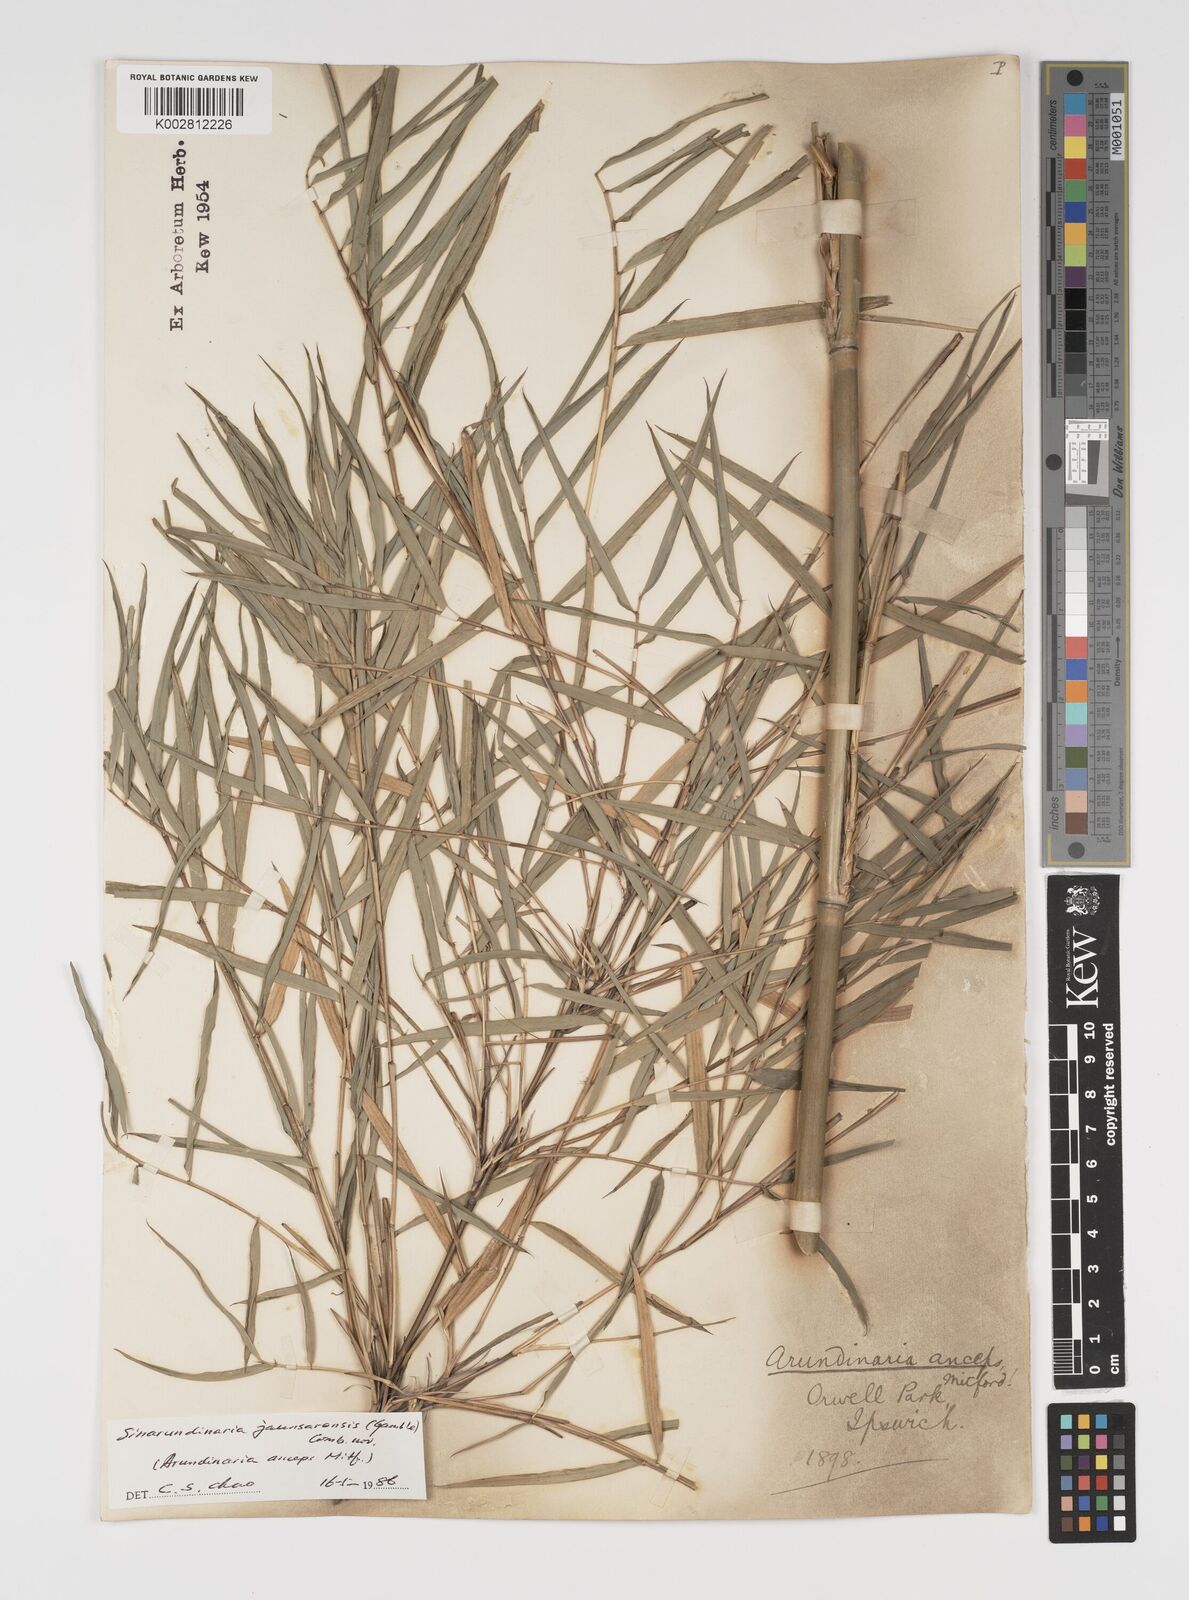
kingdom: Plantae
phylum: Tracheophyta
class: Liliopsida
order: Poales
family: Poaceae
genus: Yushania
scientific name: Yushania anceps
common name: Indian fountain-bamboo
